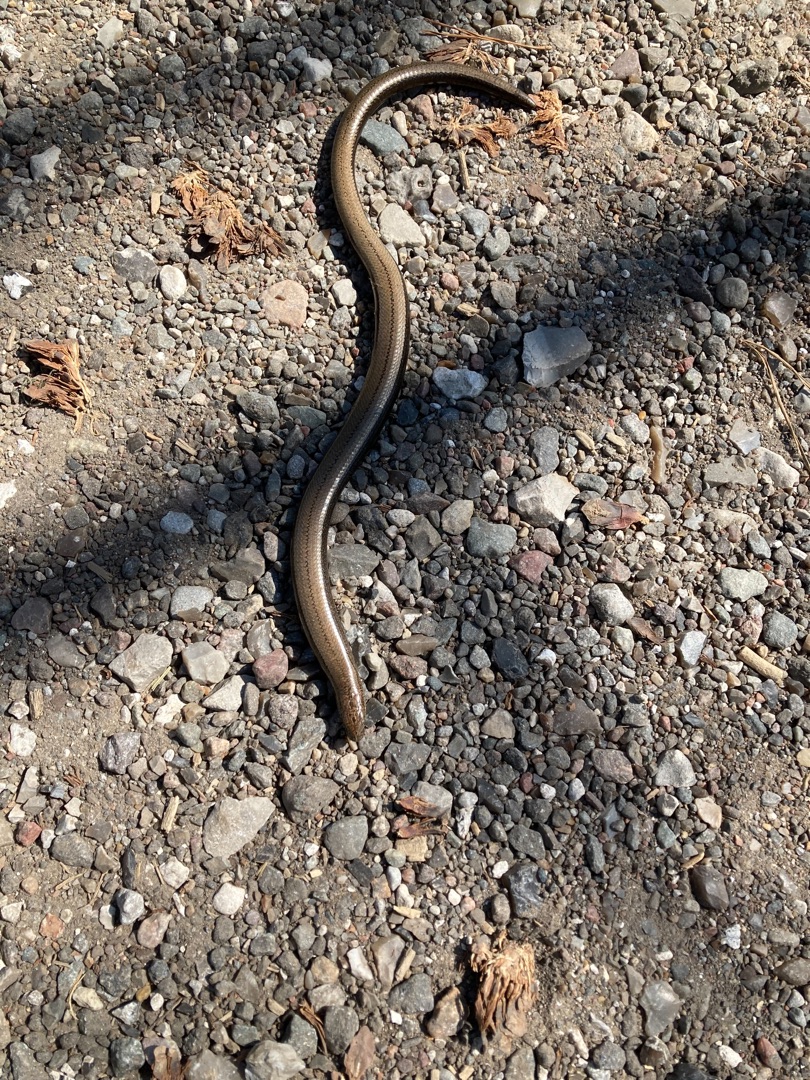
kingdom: Animalia
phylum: Chordata
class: Squamata
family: Anguidae
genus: Anguis
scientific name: Anguis fragilis
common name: Stålorm
